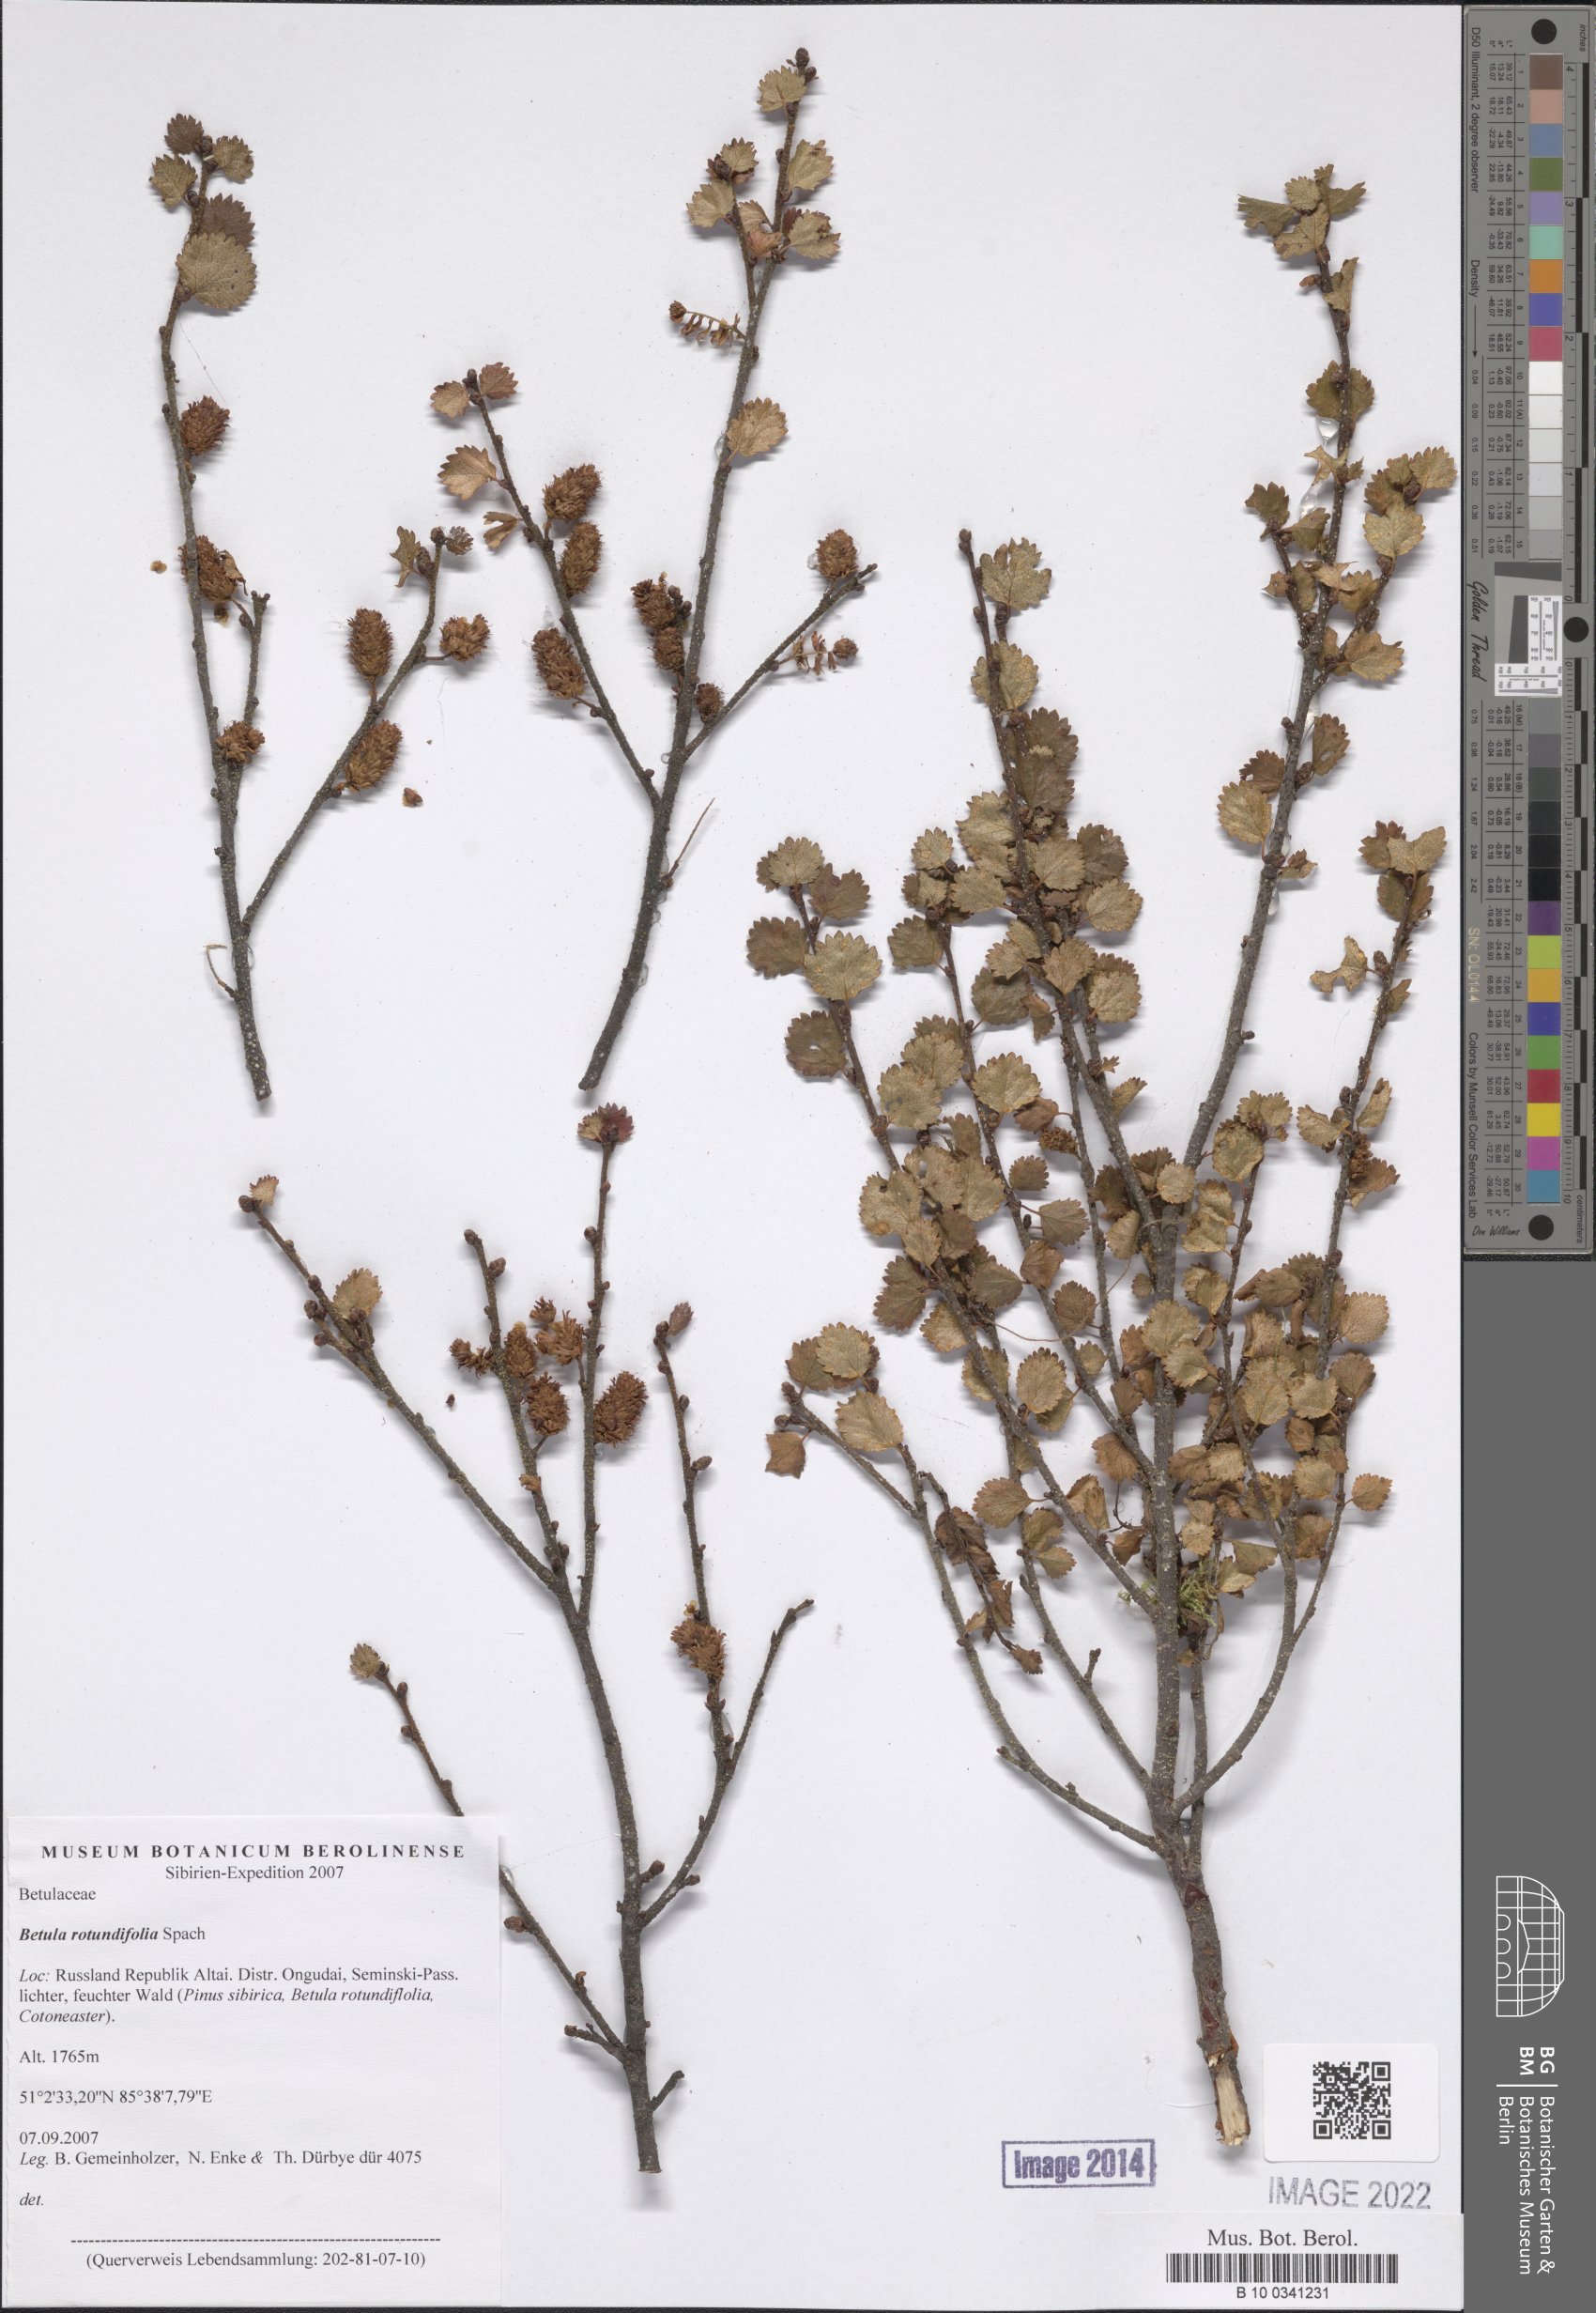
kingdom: Plantae
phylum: Tracheophyta
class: Magnoliopsida
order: Fagales
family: Betulaceae
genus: Betula
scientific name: Betula glandulosa
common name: Dwarf birch
